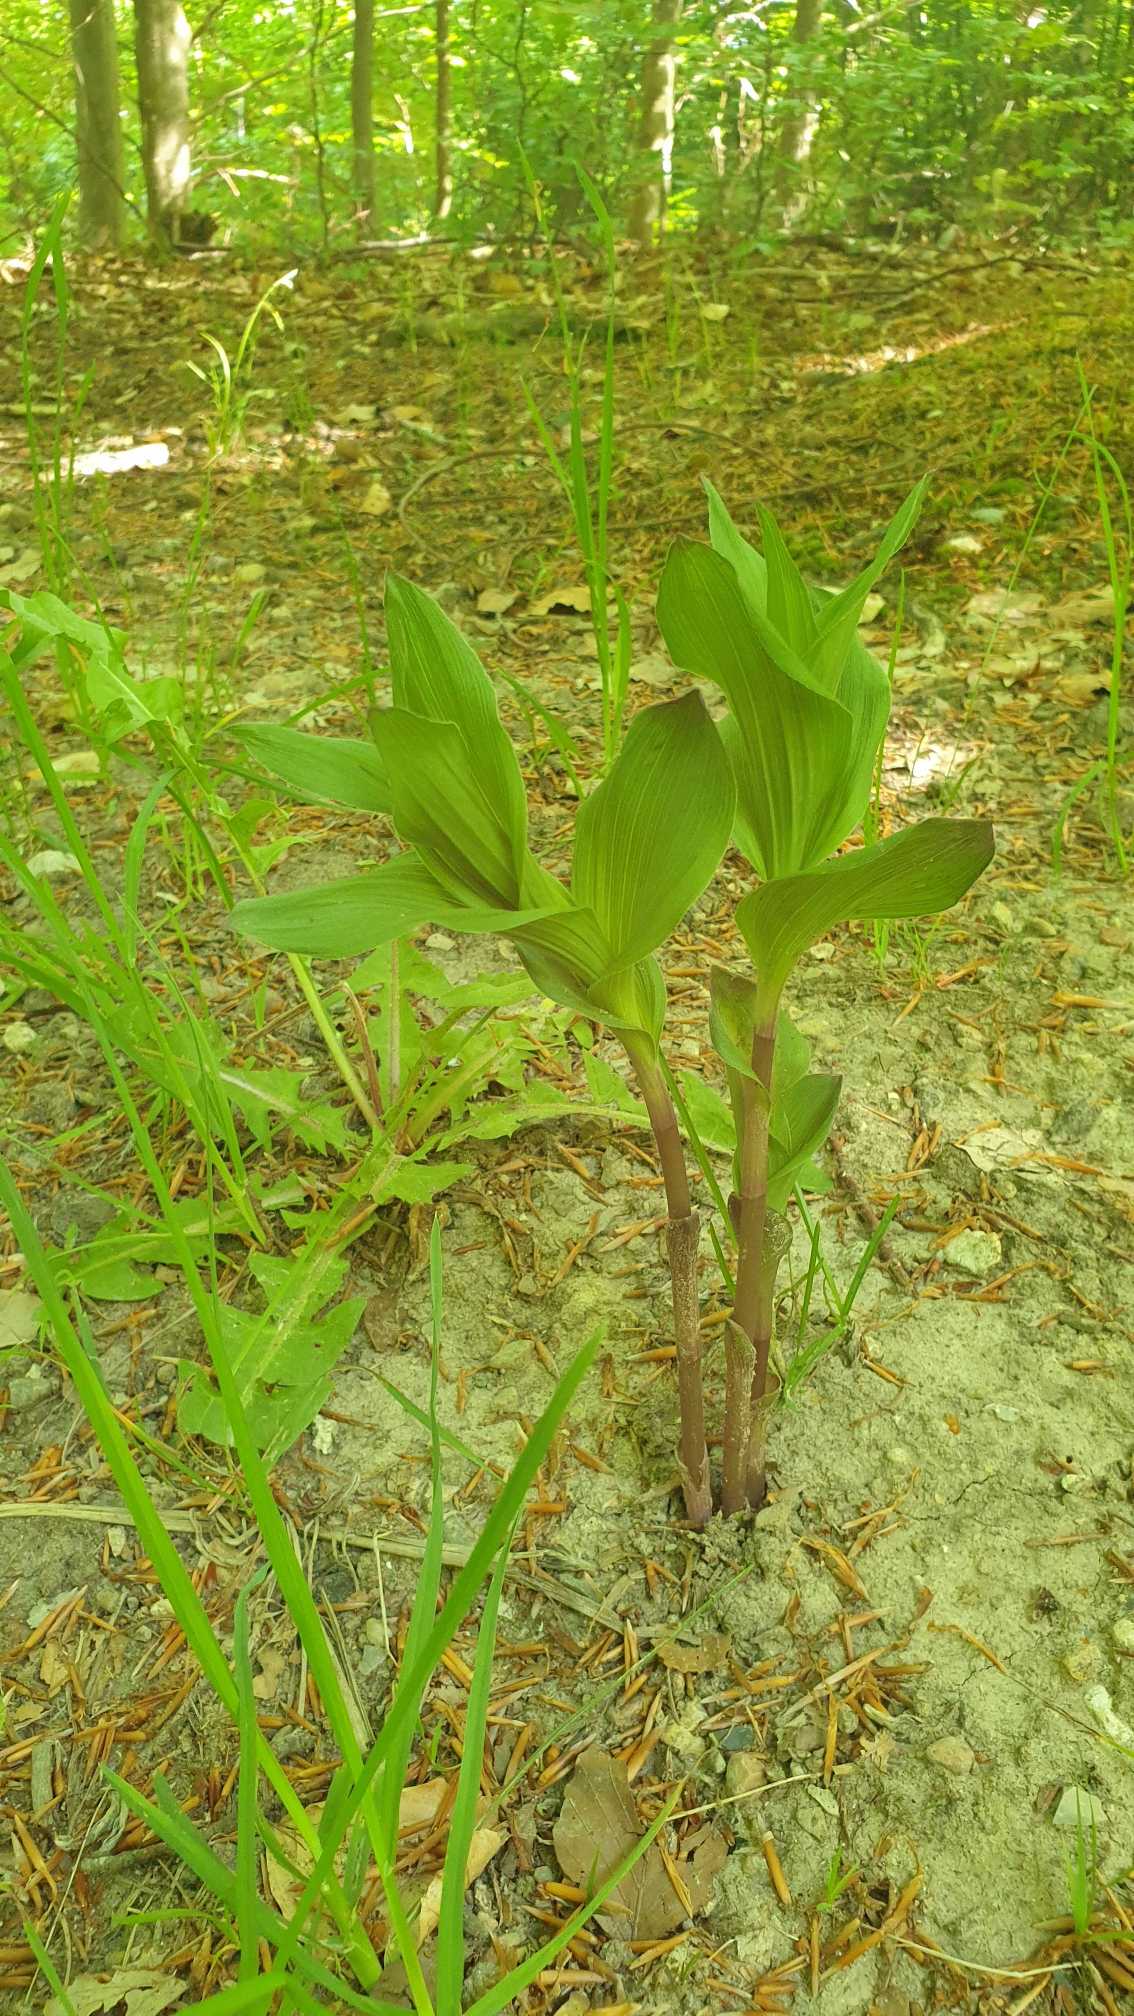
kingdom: Plantae
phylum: Tracheophyta
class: Liliopsida
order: Asparagales
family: Orchidaceae
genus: Epipactis
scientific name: Epipactis helleborine
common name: Skov-hullæbe
